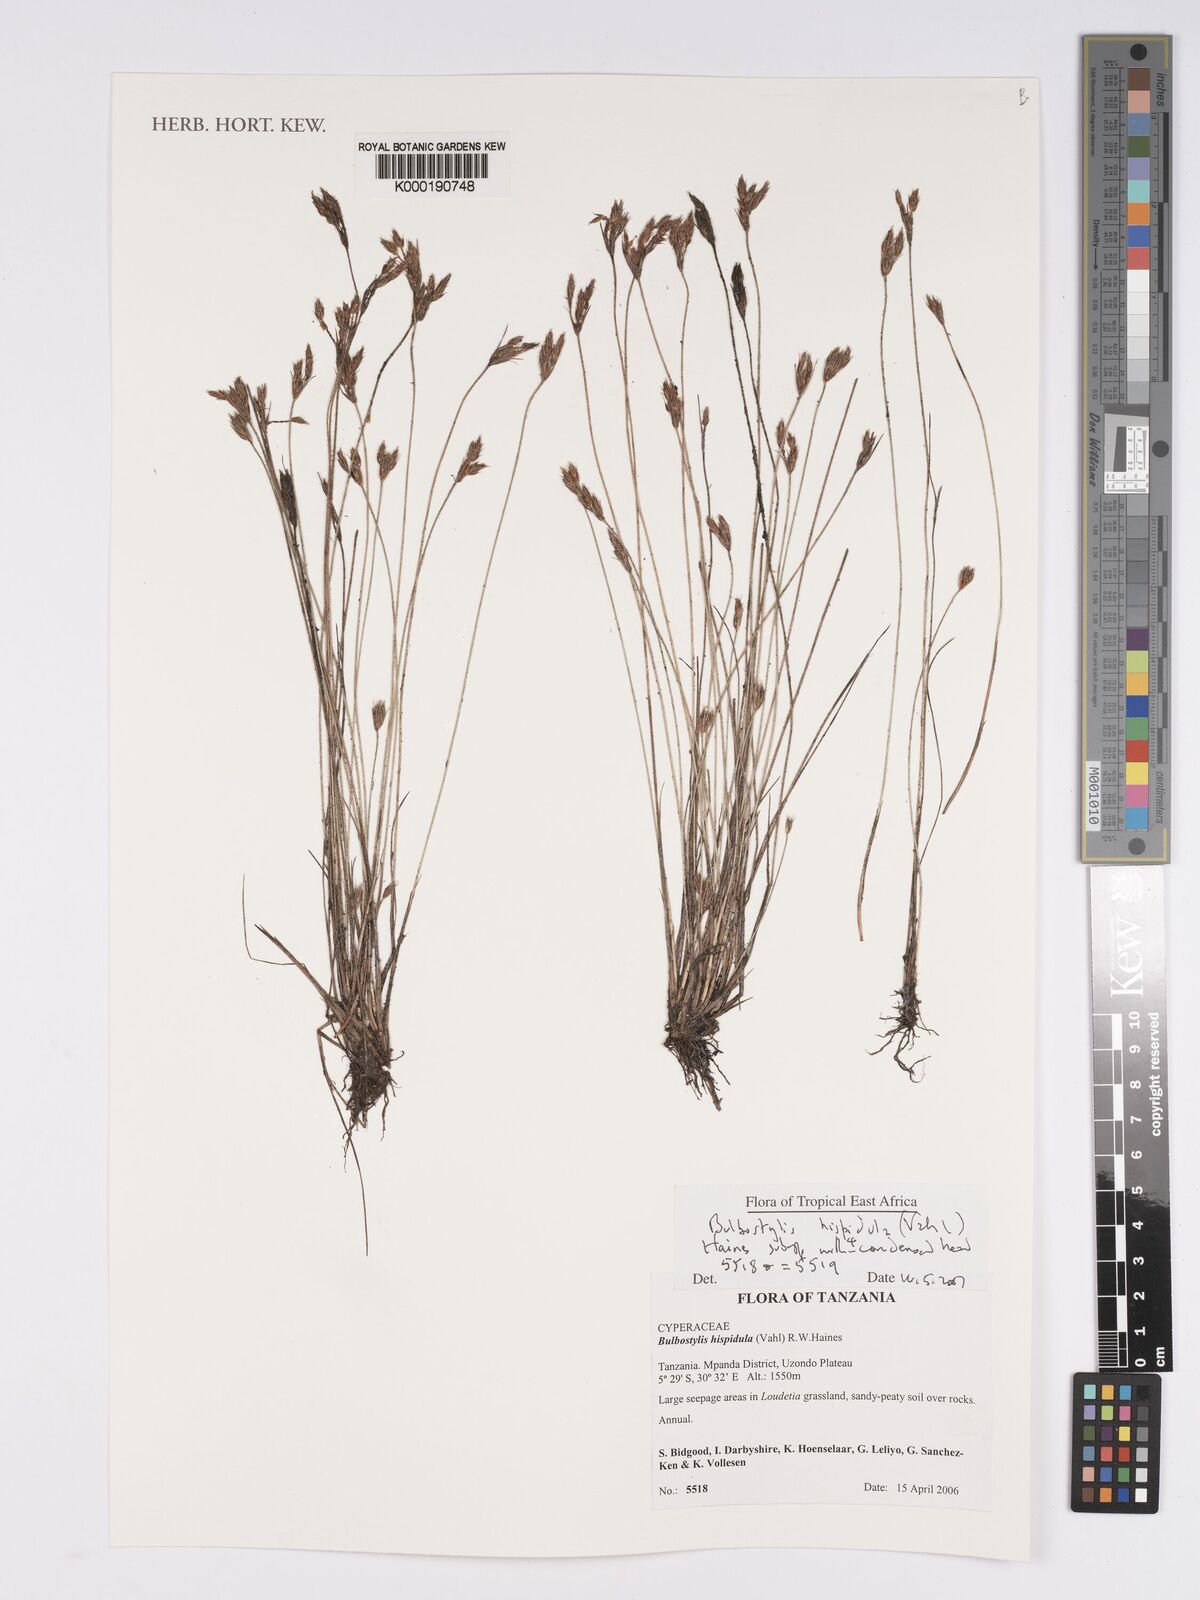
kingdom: Plantae
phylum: Tracheophyta
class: Liliopsida
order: Poales
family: Cyperaceae
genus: Bulbostylis
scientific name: Bulbostylis hispidula
